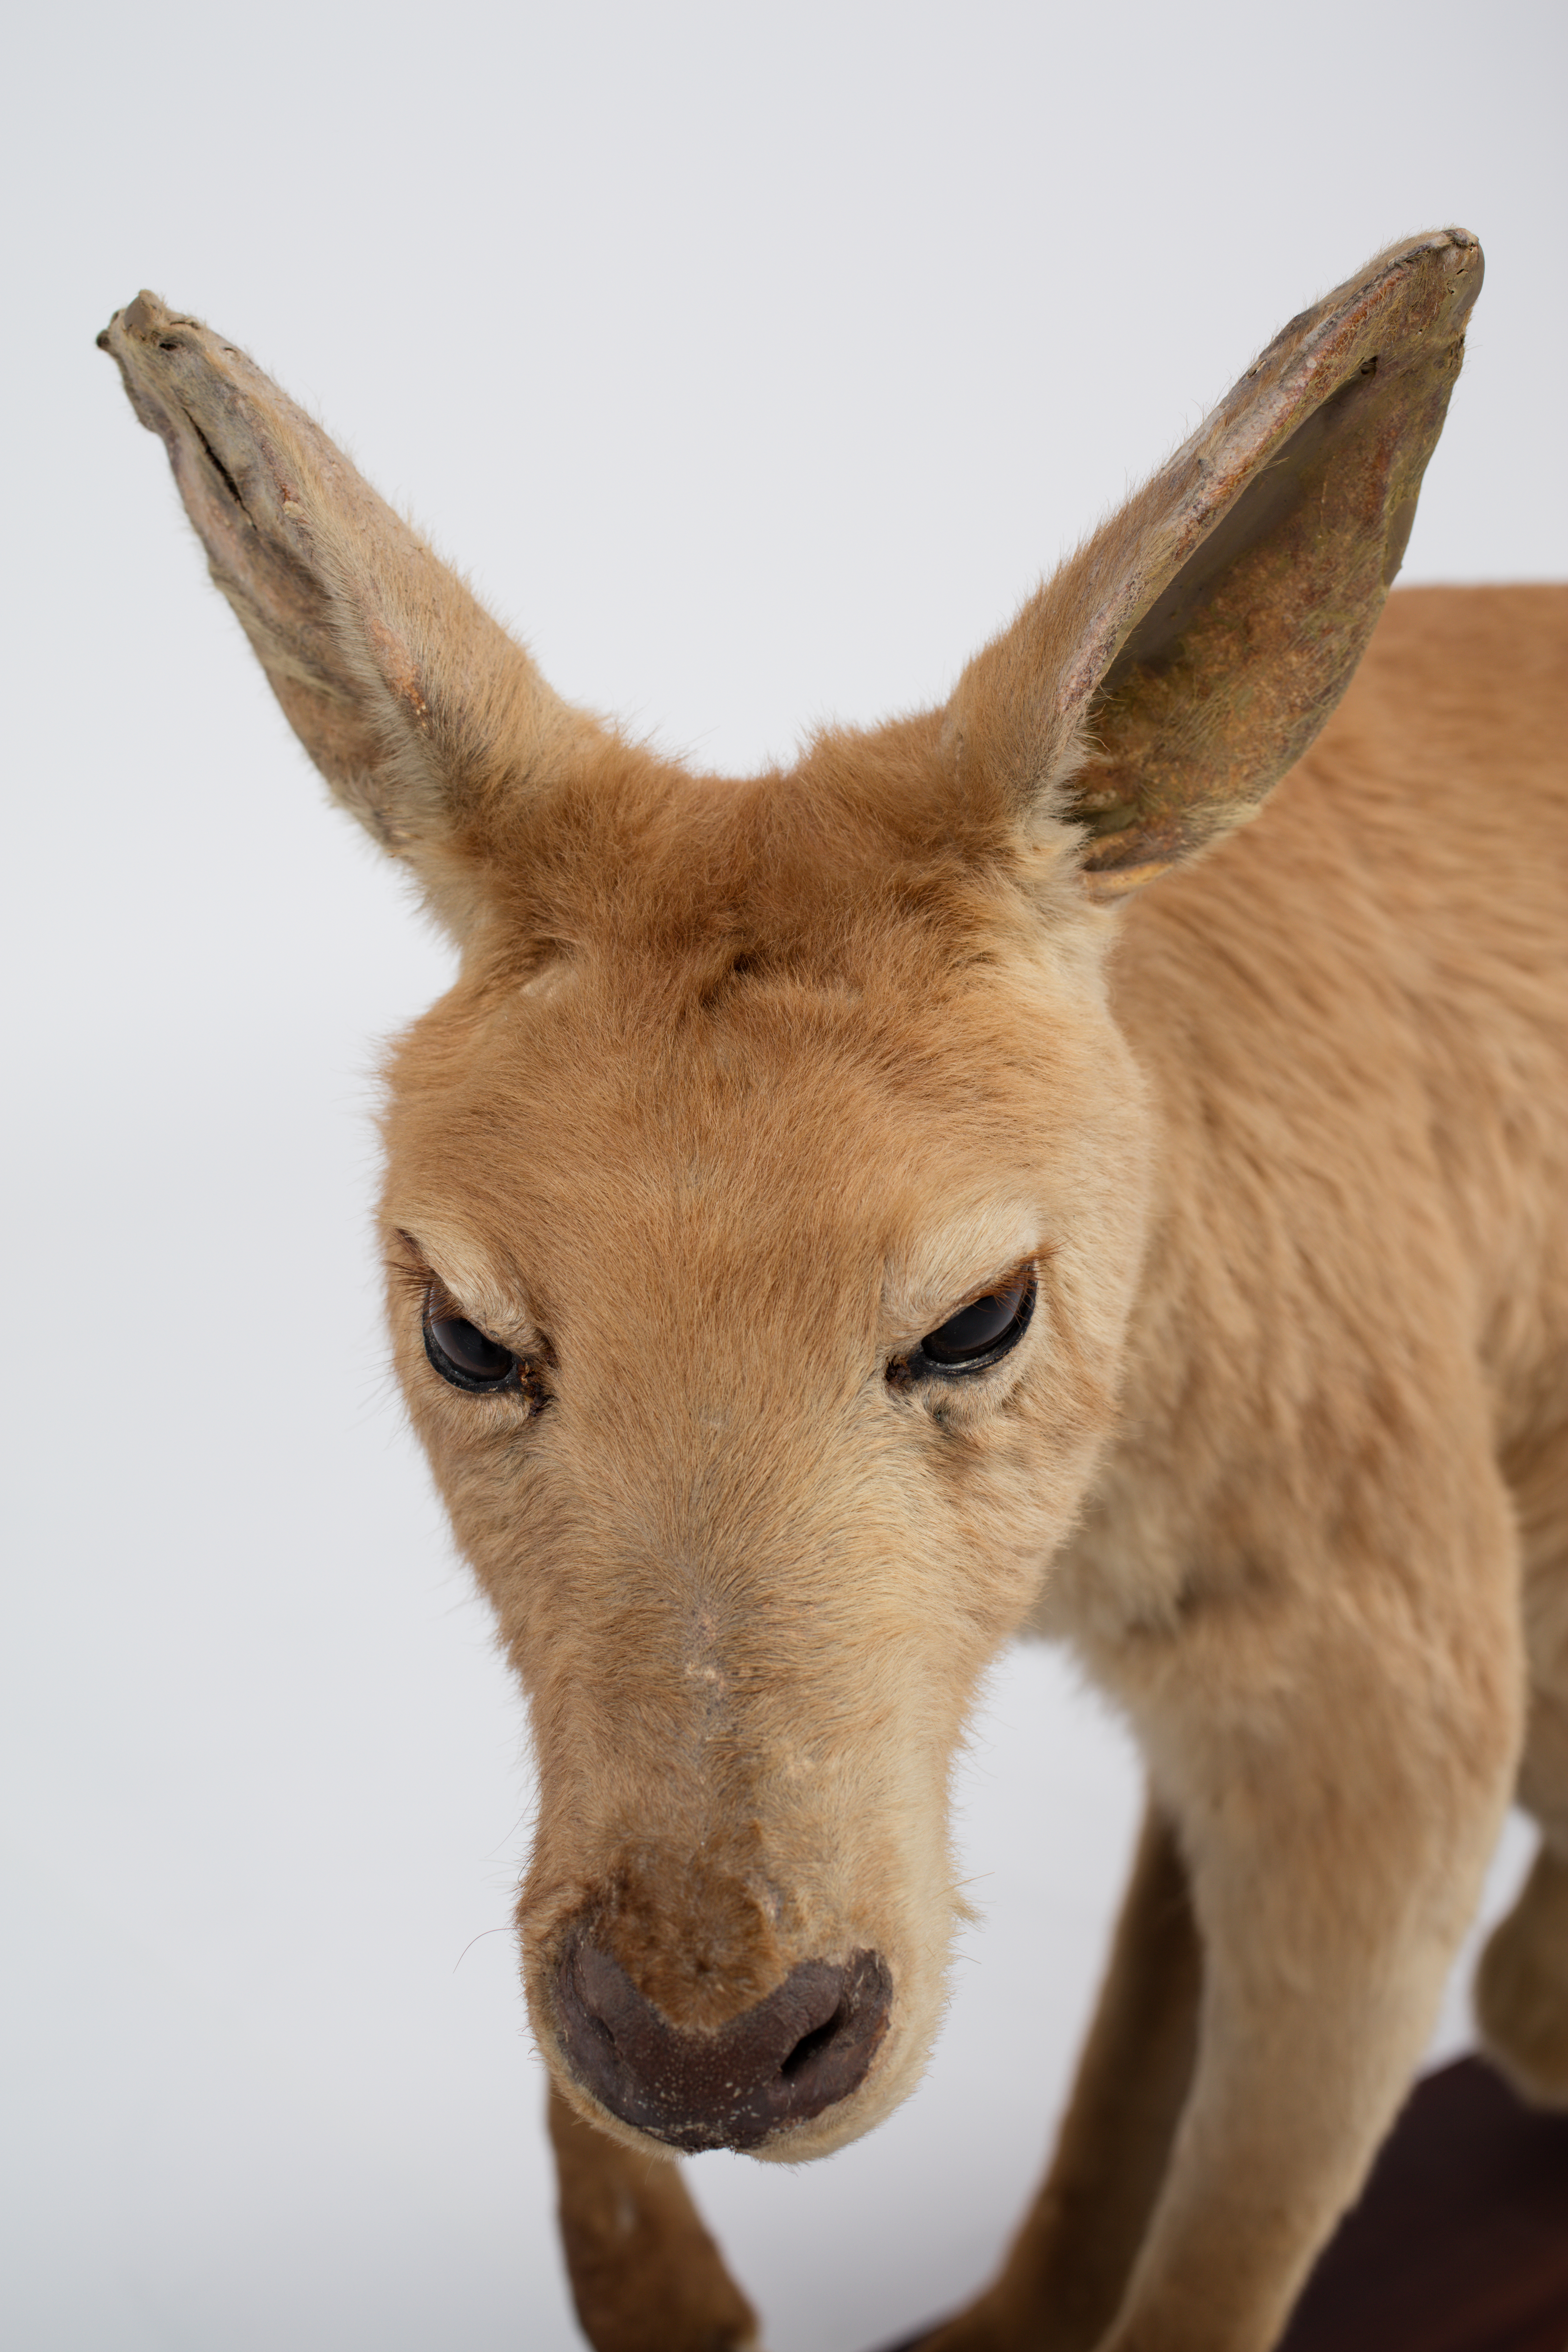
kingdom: Animalia
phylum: Chordata
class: Mammalia
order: Diprotodontia
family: Macropodidae
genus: Macropus
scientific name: Macropus rufus
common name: Red kangaroo
